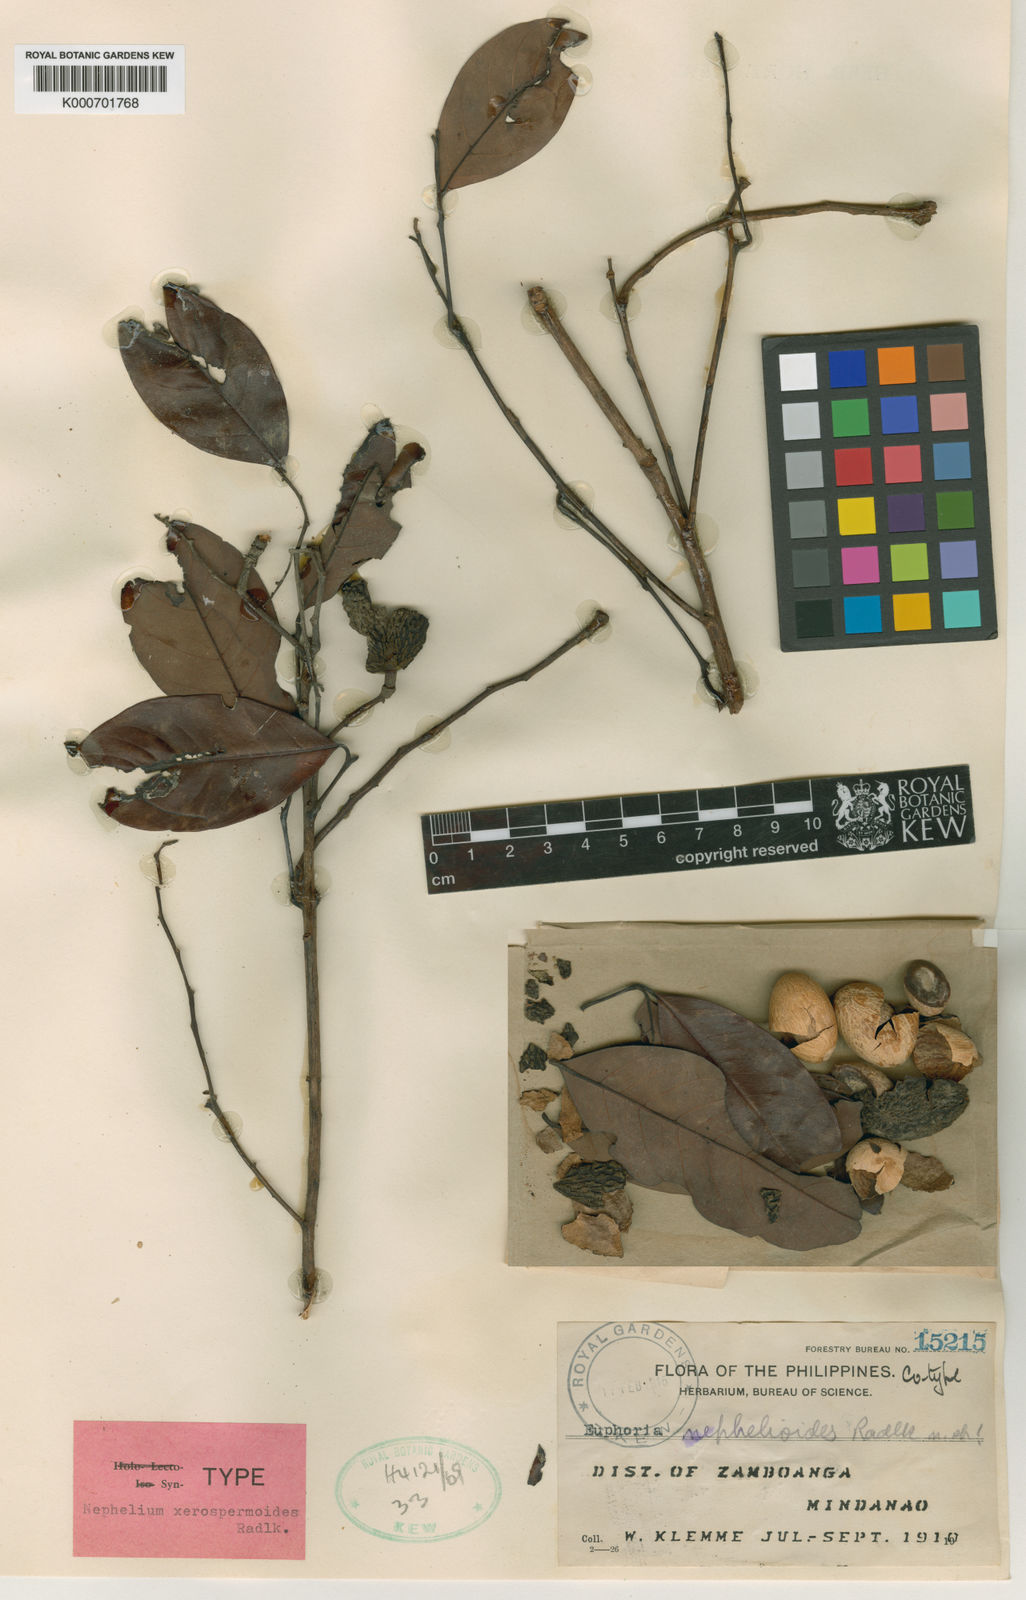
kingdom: Plantae
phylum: Tracheophyta
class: Magnoliopsida
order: Sapindales
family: Sapindaceae
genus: Nephelium
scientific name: Nephelium melanomiscum
